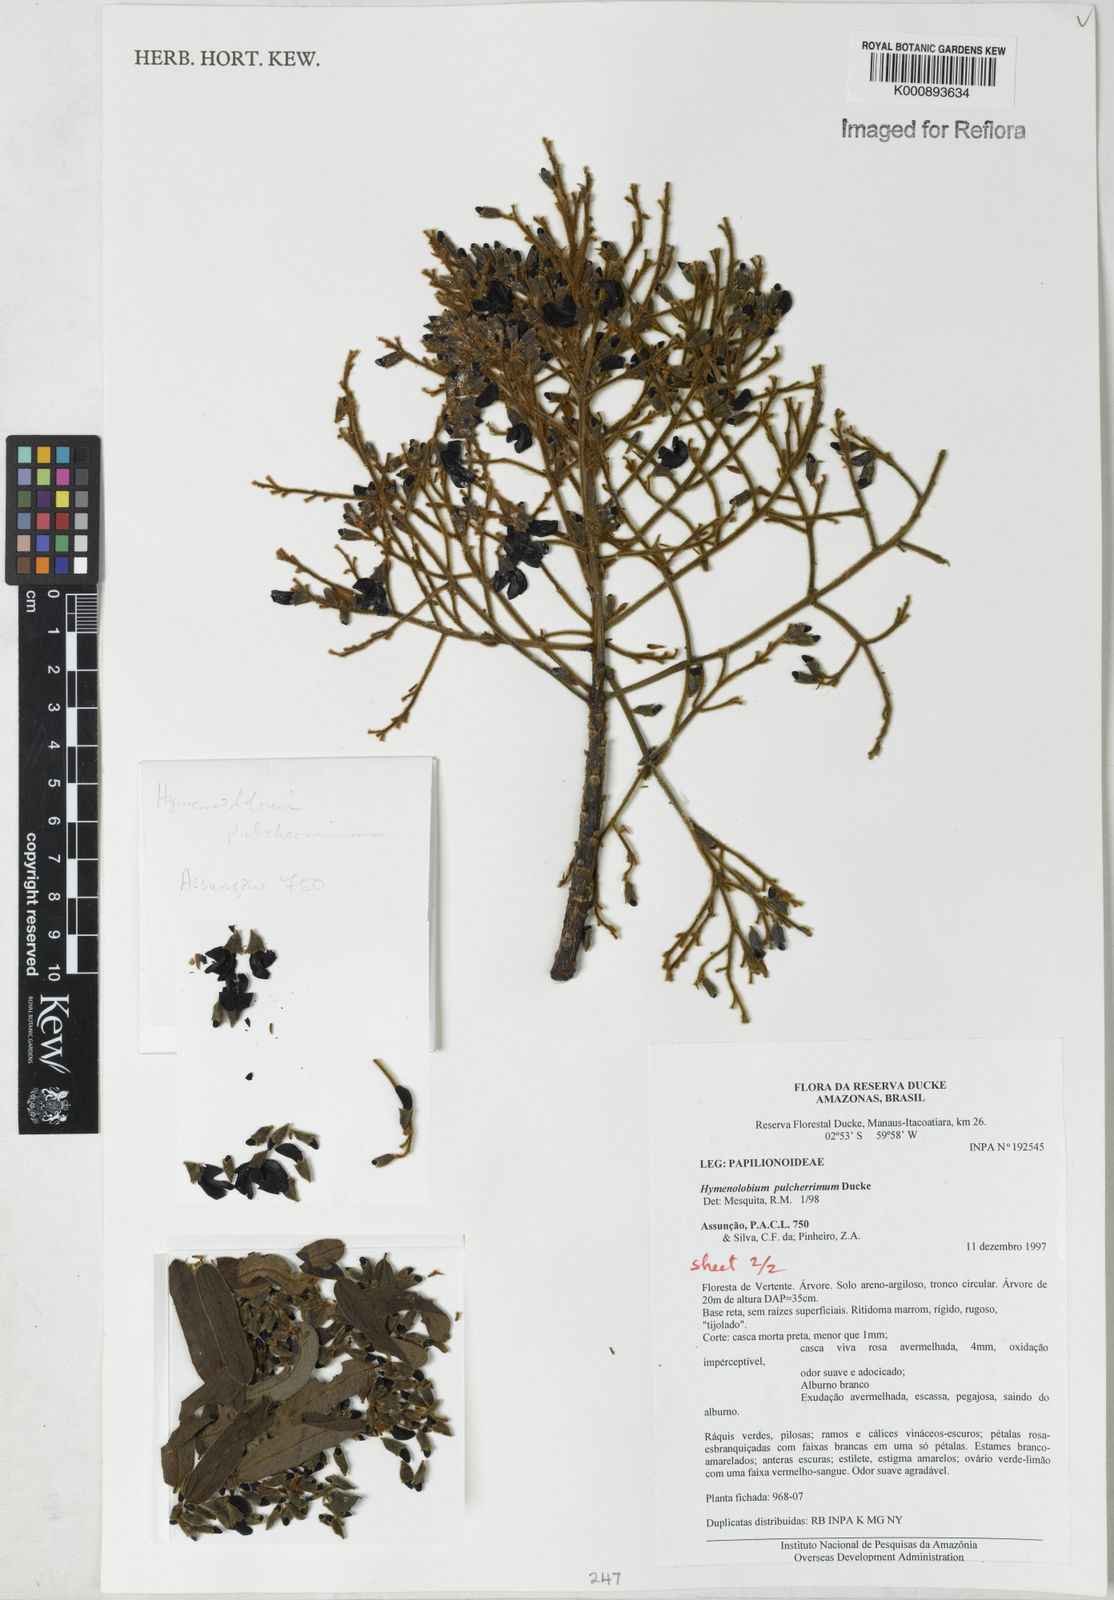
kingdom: Plantae
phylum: Tracheophyta
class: Magnoliopsida
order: Fabales
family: Fabaceae
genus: Hymenolobium
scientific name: Hymenolobium pulcherrimum
